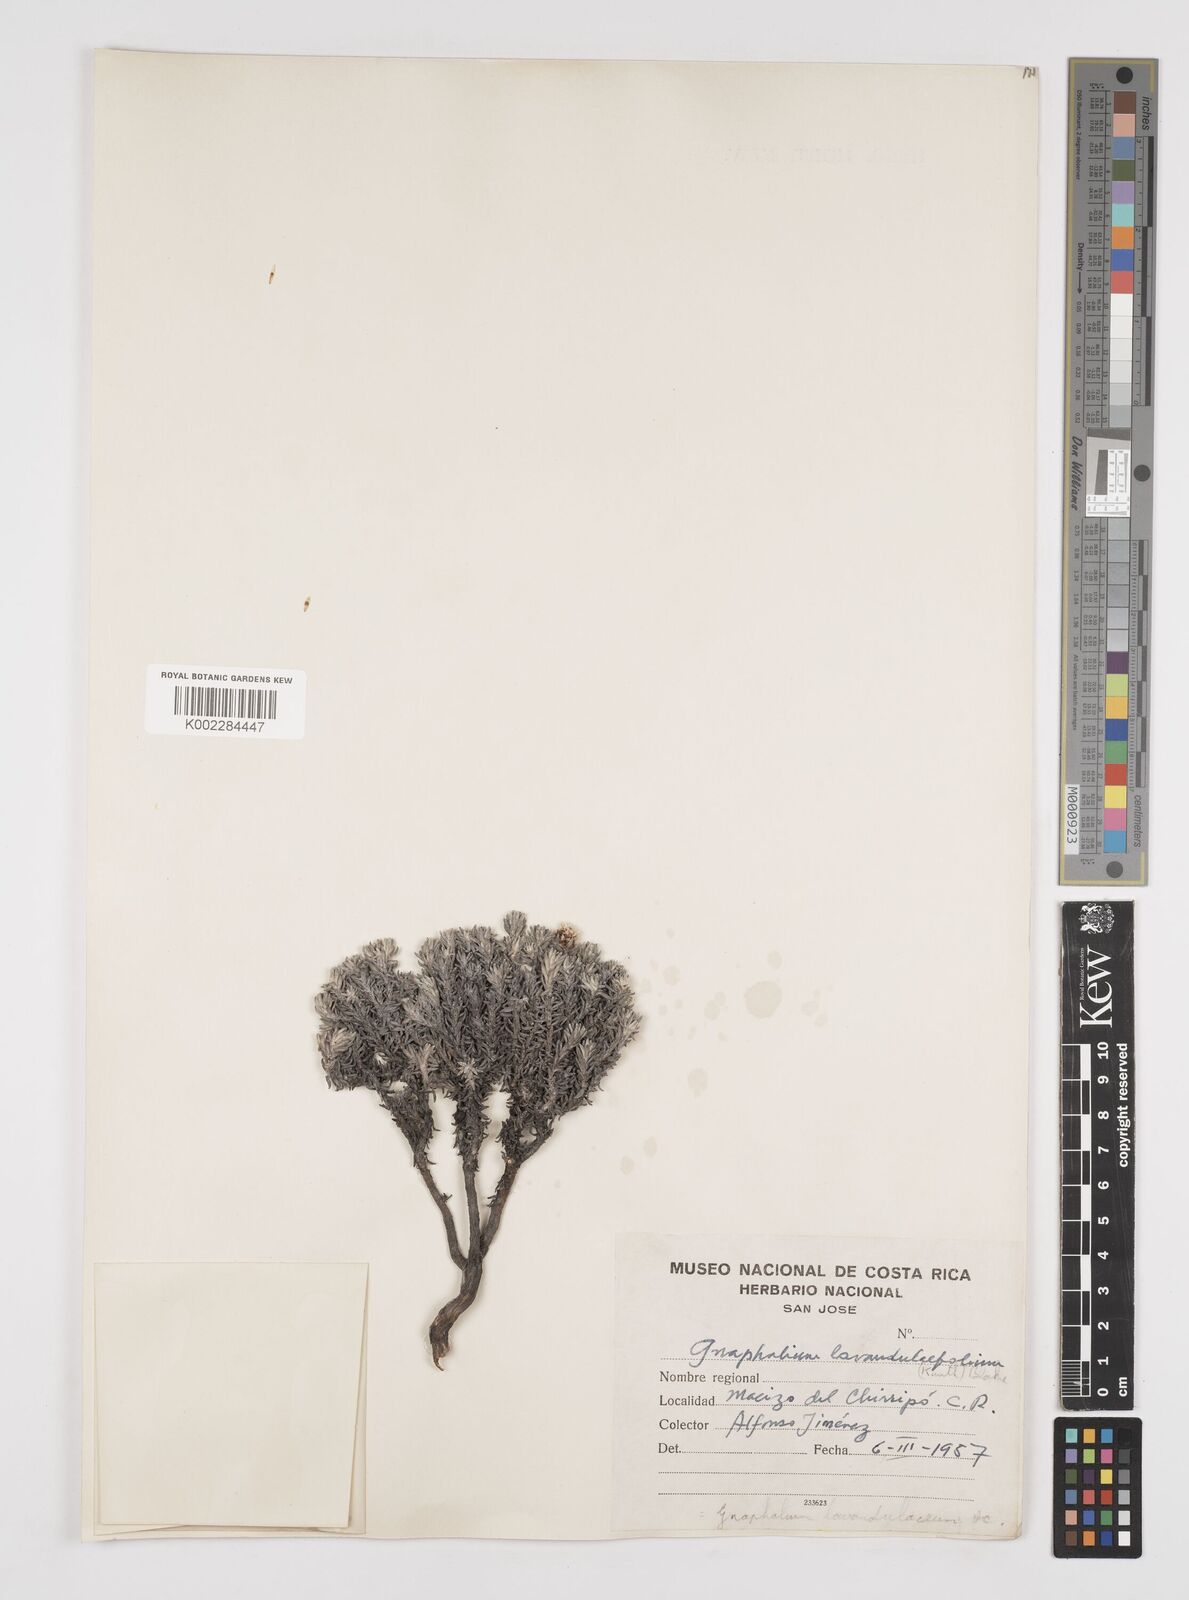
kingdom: Plantae
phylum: Tracheophyta
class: Magnoliopsida
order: Asterales
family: Asteraceae
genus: Gnaphaliothamnus
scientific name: Gnaphaliothamnus lavandulifolius
